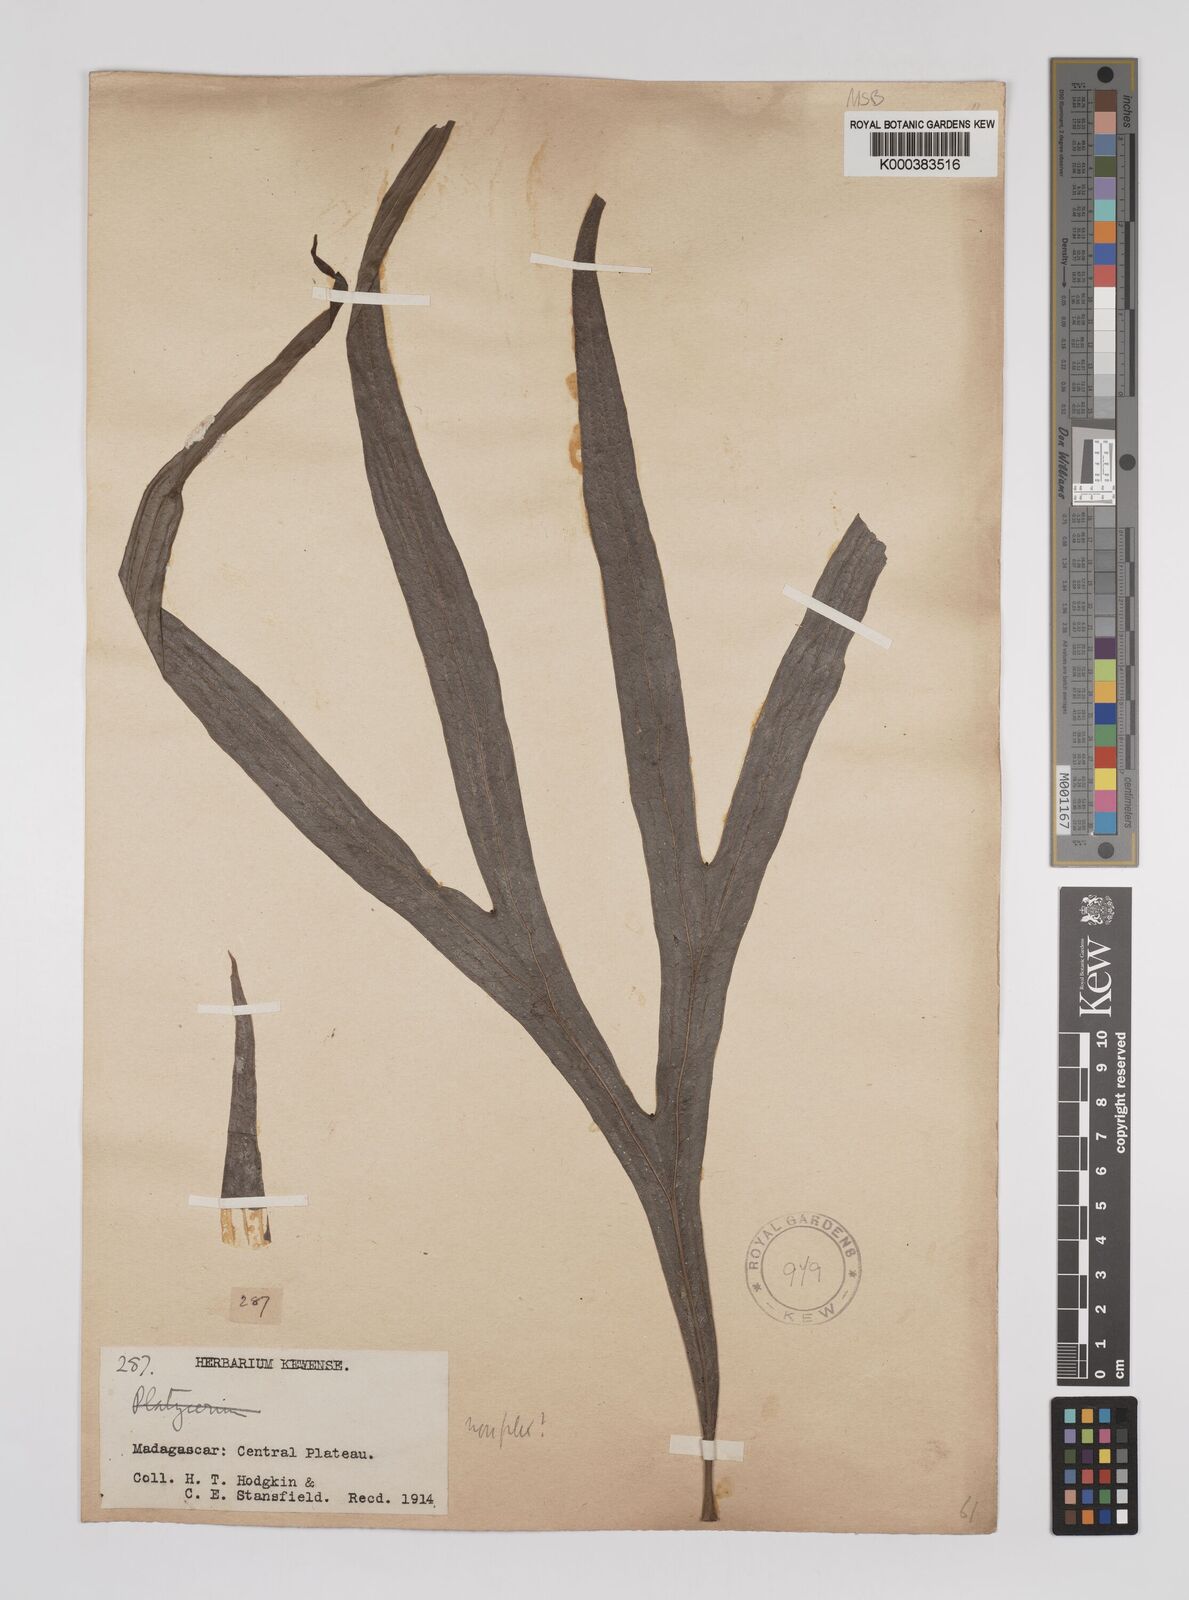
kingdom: Plantae
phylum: Tracheophyta
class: Magnoliopsida
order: Proteales
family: Proteaceae
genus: Dilobeia
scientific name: Dilobeia thouarsii
